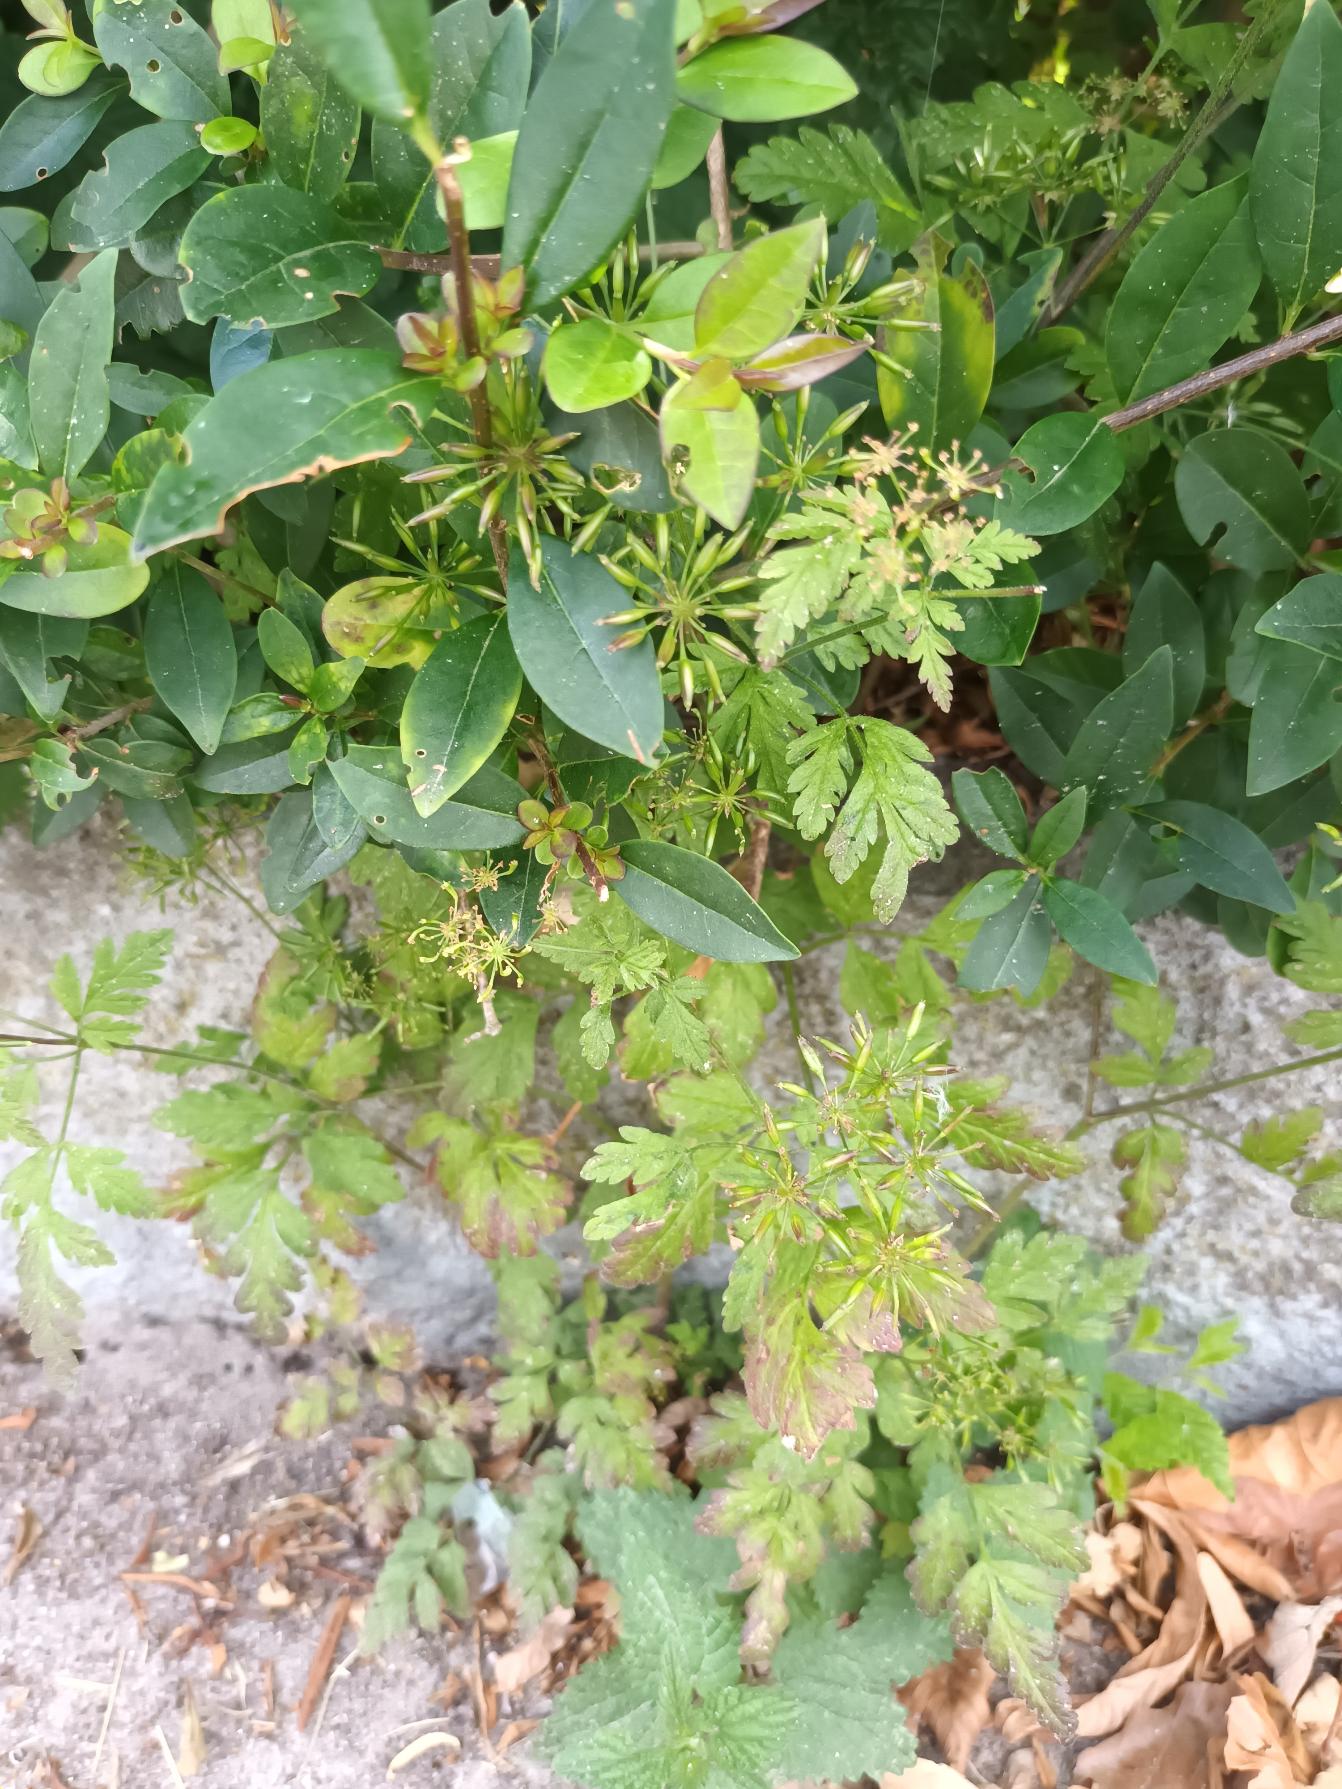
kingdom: Plantae
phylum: Tracheophyta
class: Magnoliopsida
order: Apiales
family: Apiaceae
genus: Chaerophyllum
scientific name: Chaerophyllum temulum
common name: Almindelig hulsvøb
